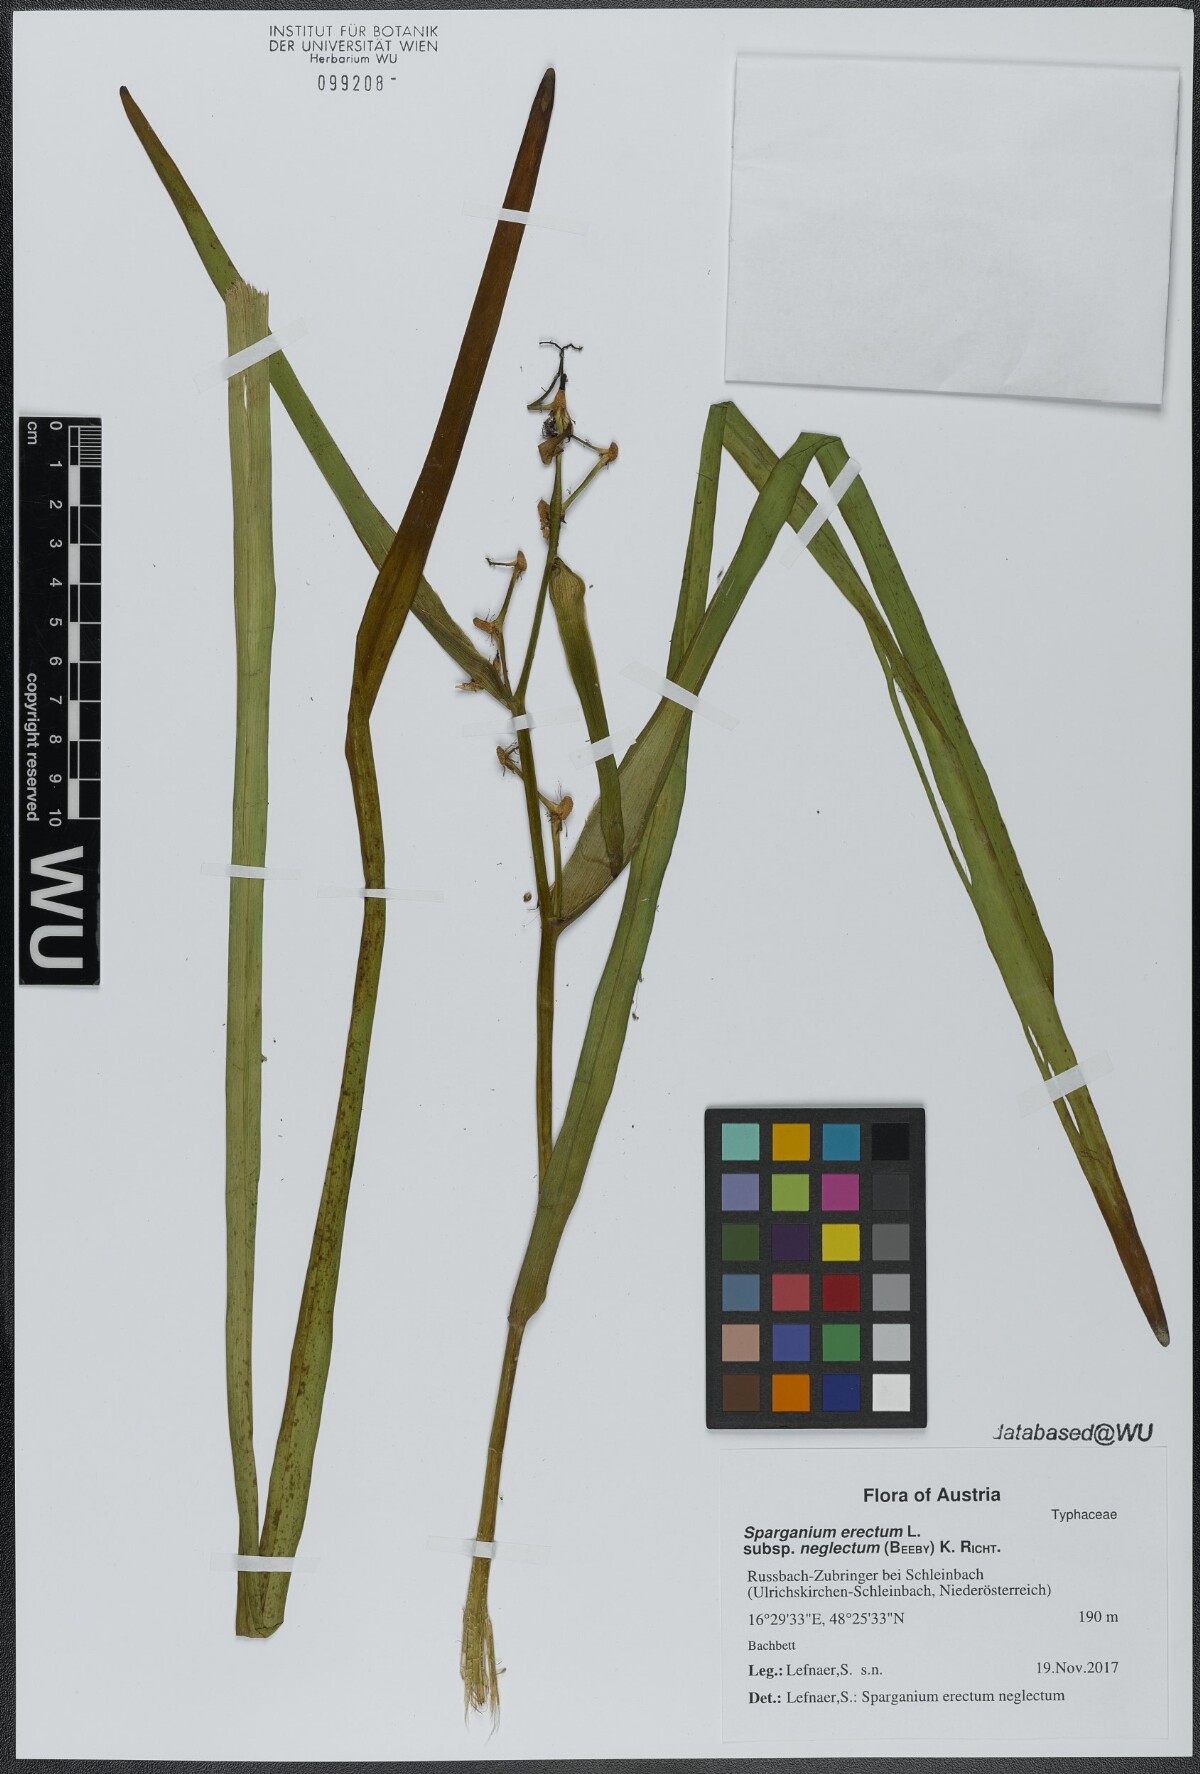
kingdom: Plantae
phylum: Tracheophyta
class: Liliopsida
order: Poales
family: Typhaceae
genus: Sparganium
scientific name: Sparganium erectum
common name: Branched bur-reed
